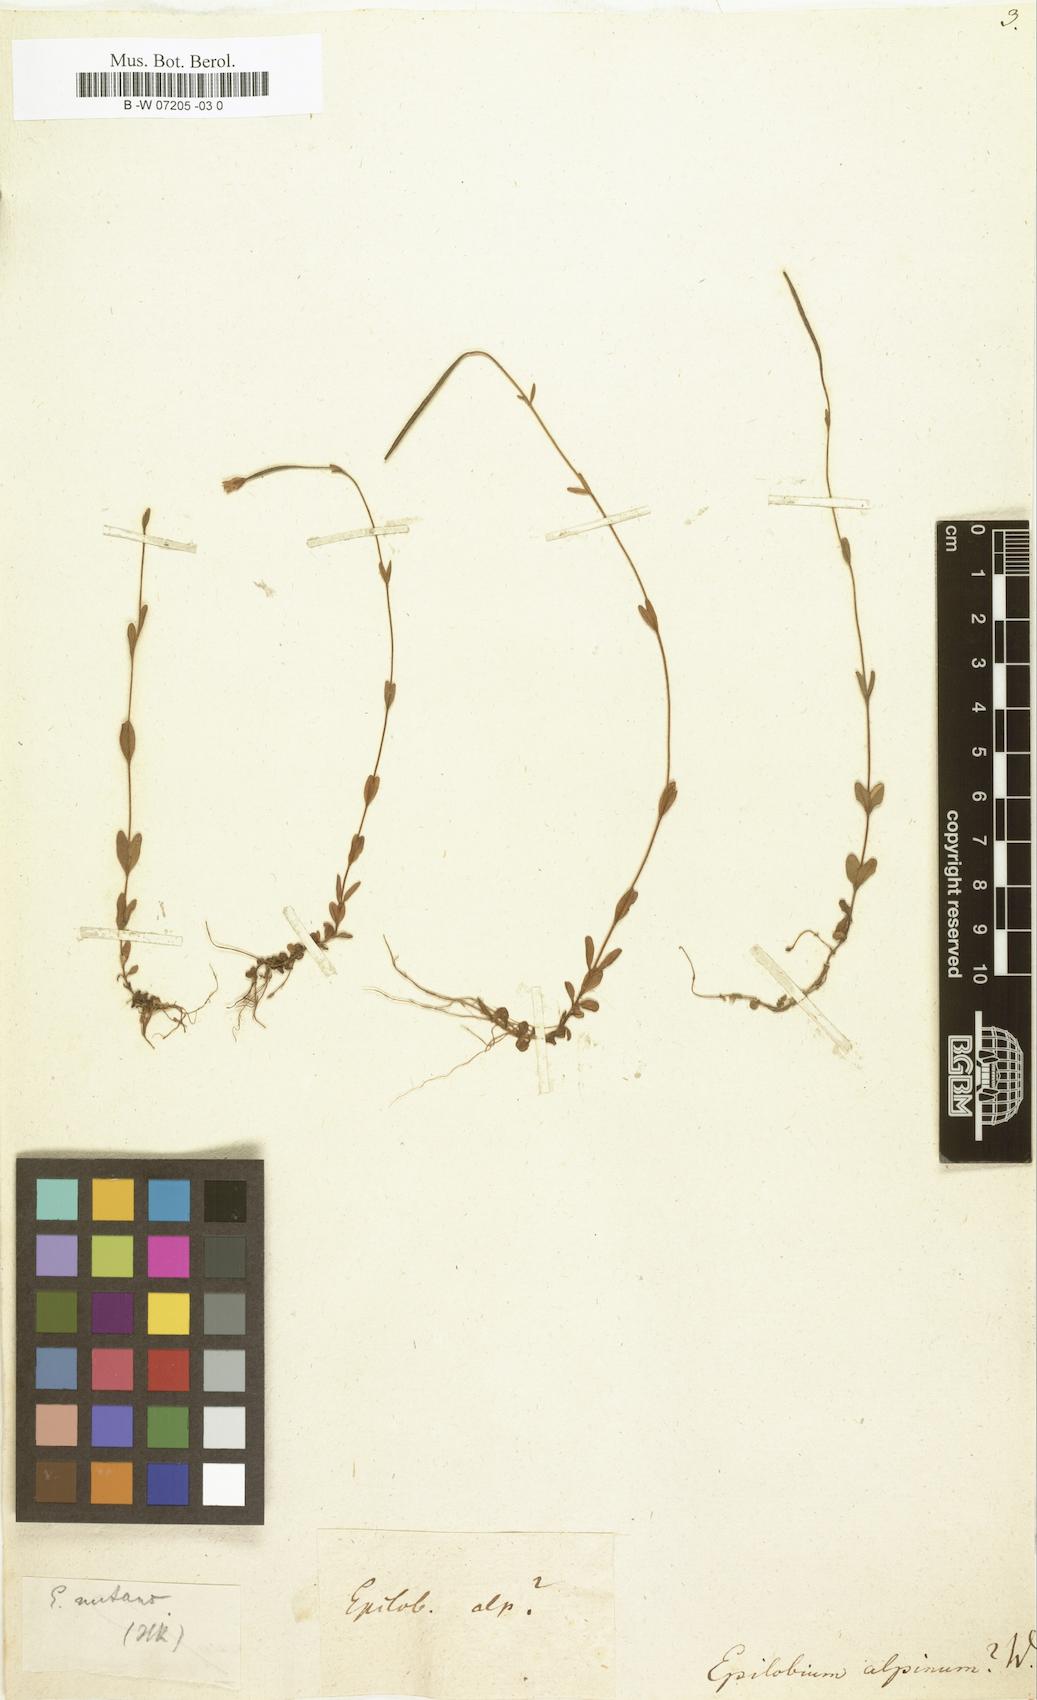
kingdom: Plantae
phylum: Tracheophyta
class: Magnoliopsida
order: Myrtales
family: Onagraceae
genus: Epilobium
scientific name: Epilobium alpinum
